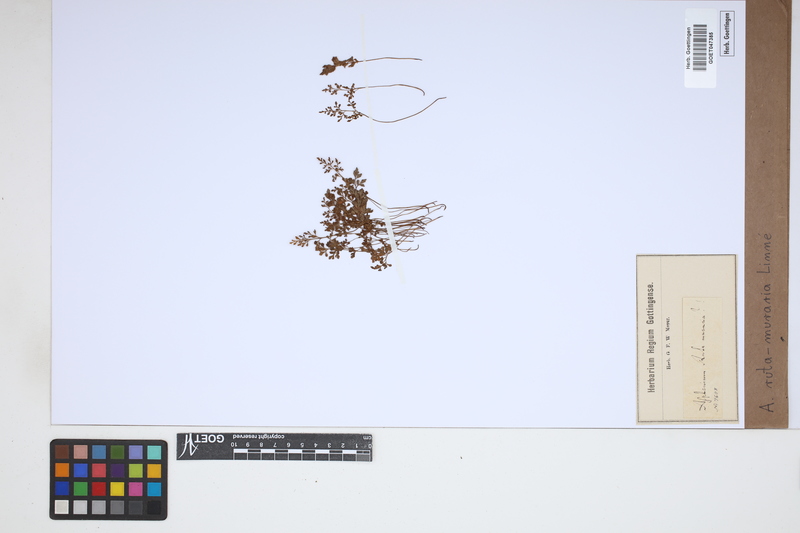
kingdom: Plantae
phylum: Tracheophyta
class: Polypodiopsida
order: Polypodiales
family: Aspleniaceae
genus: Asplenium
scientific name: Asplenium ruta-muraria
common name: Wall-rue
